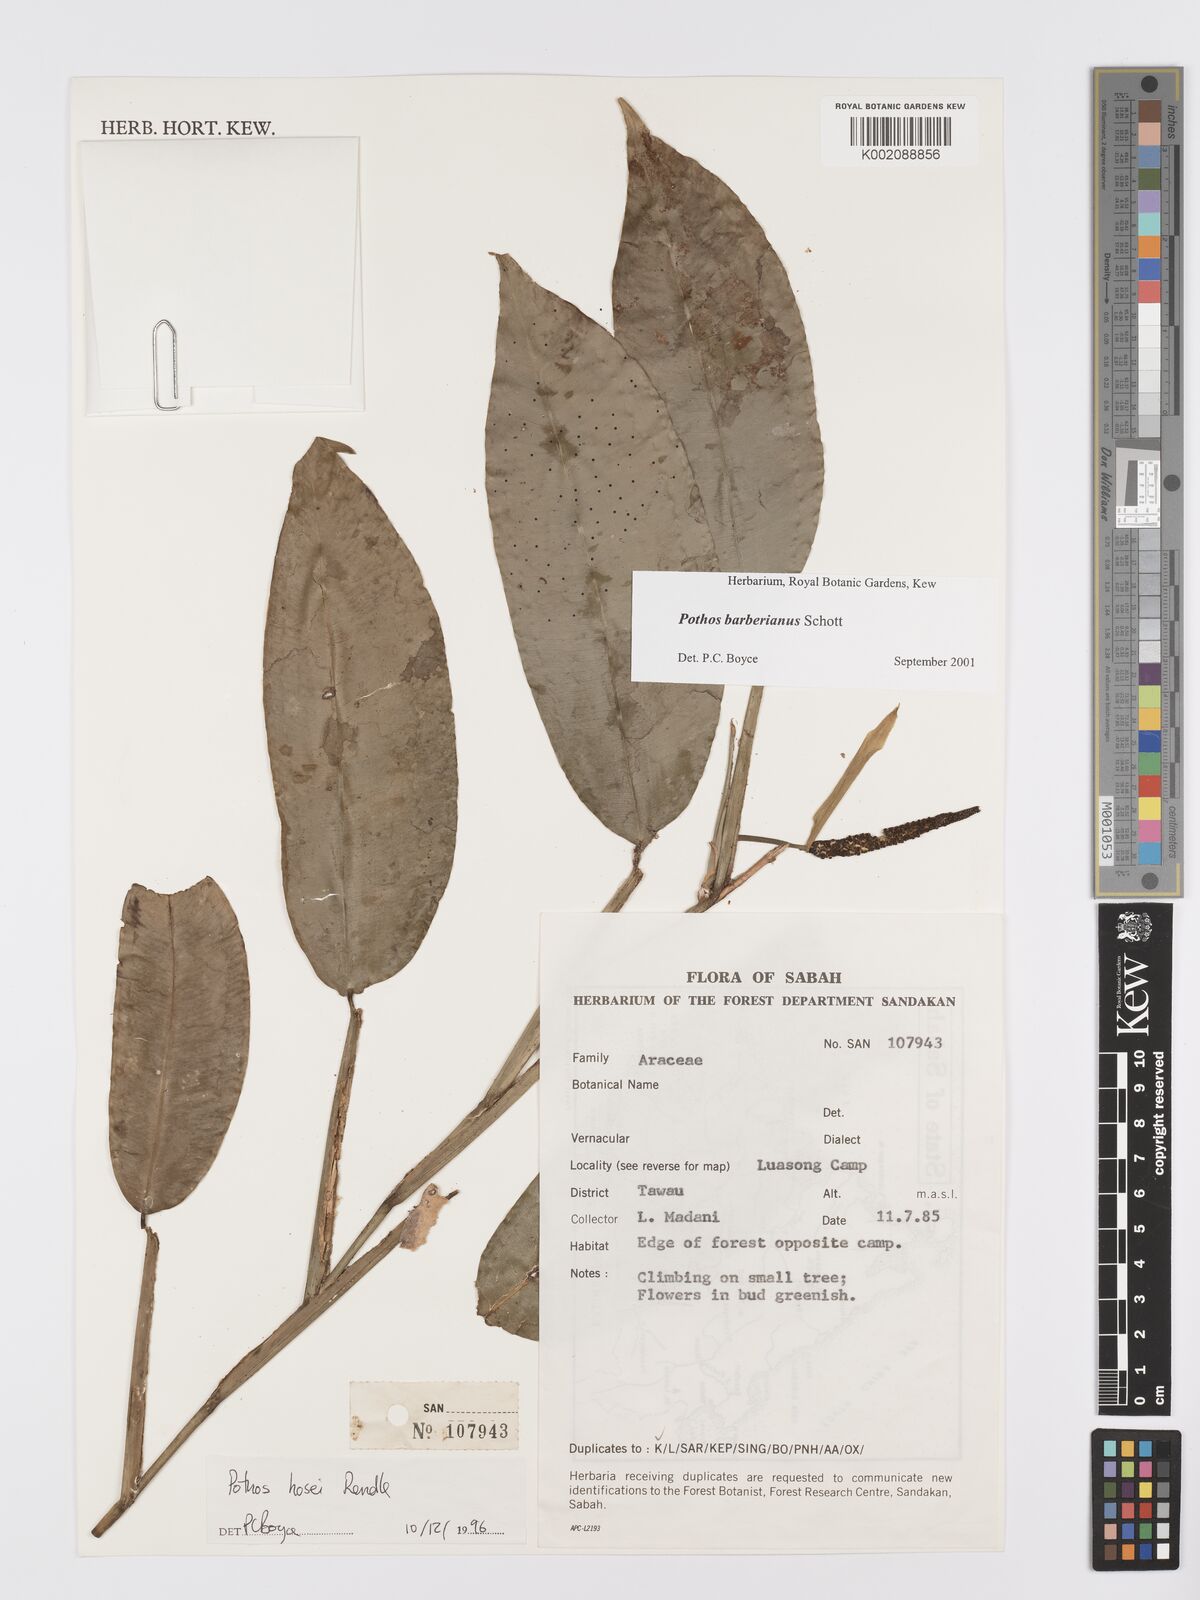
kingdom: Plantae
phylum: Tracheophyta
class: Liliopsida
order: Alismatales
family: Araceae
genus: Pothos
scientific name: Pothos barberianus
